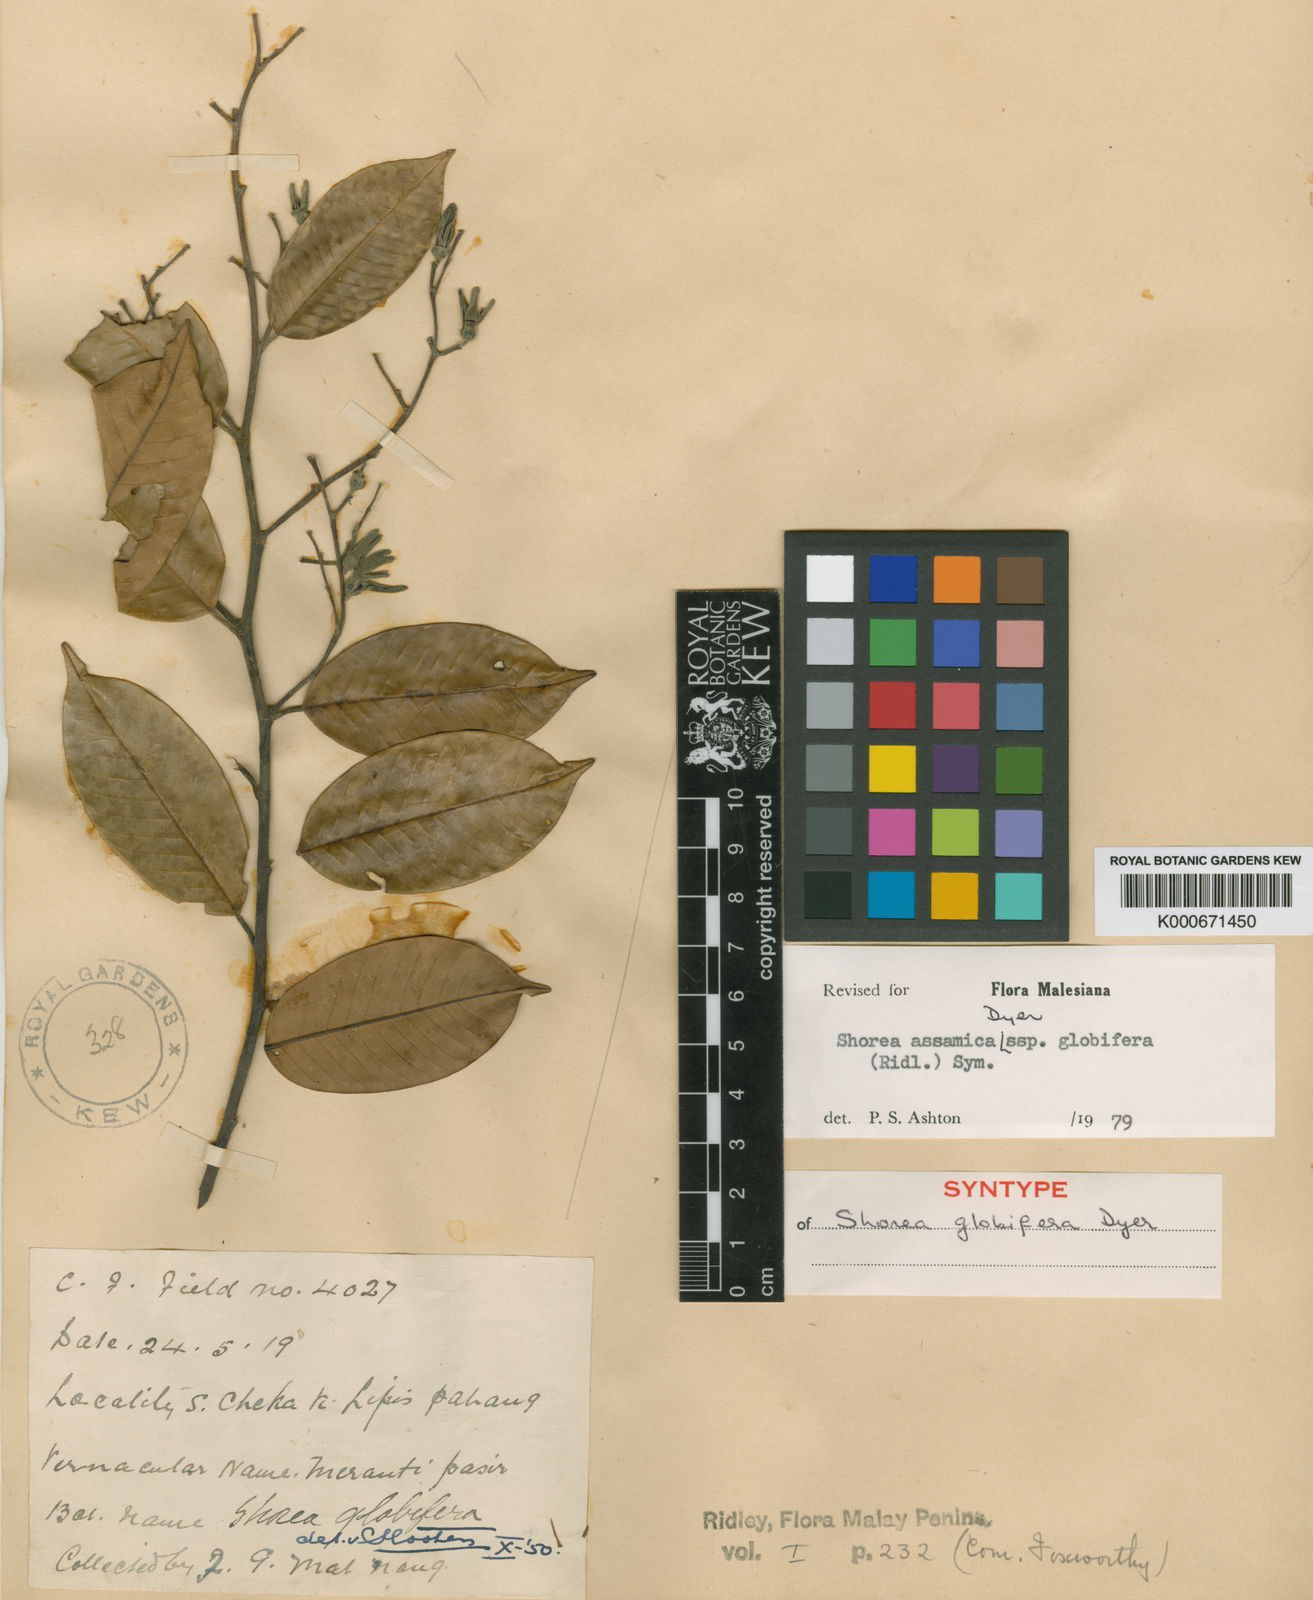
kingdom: Plantae
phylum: Tracheophyta
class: Magnoliopsida
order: Malvales
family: Dipterocarpaceae
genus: Anthoshorea
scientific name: Anthoshorea assamica
